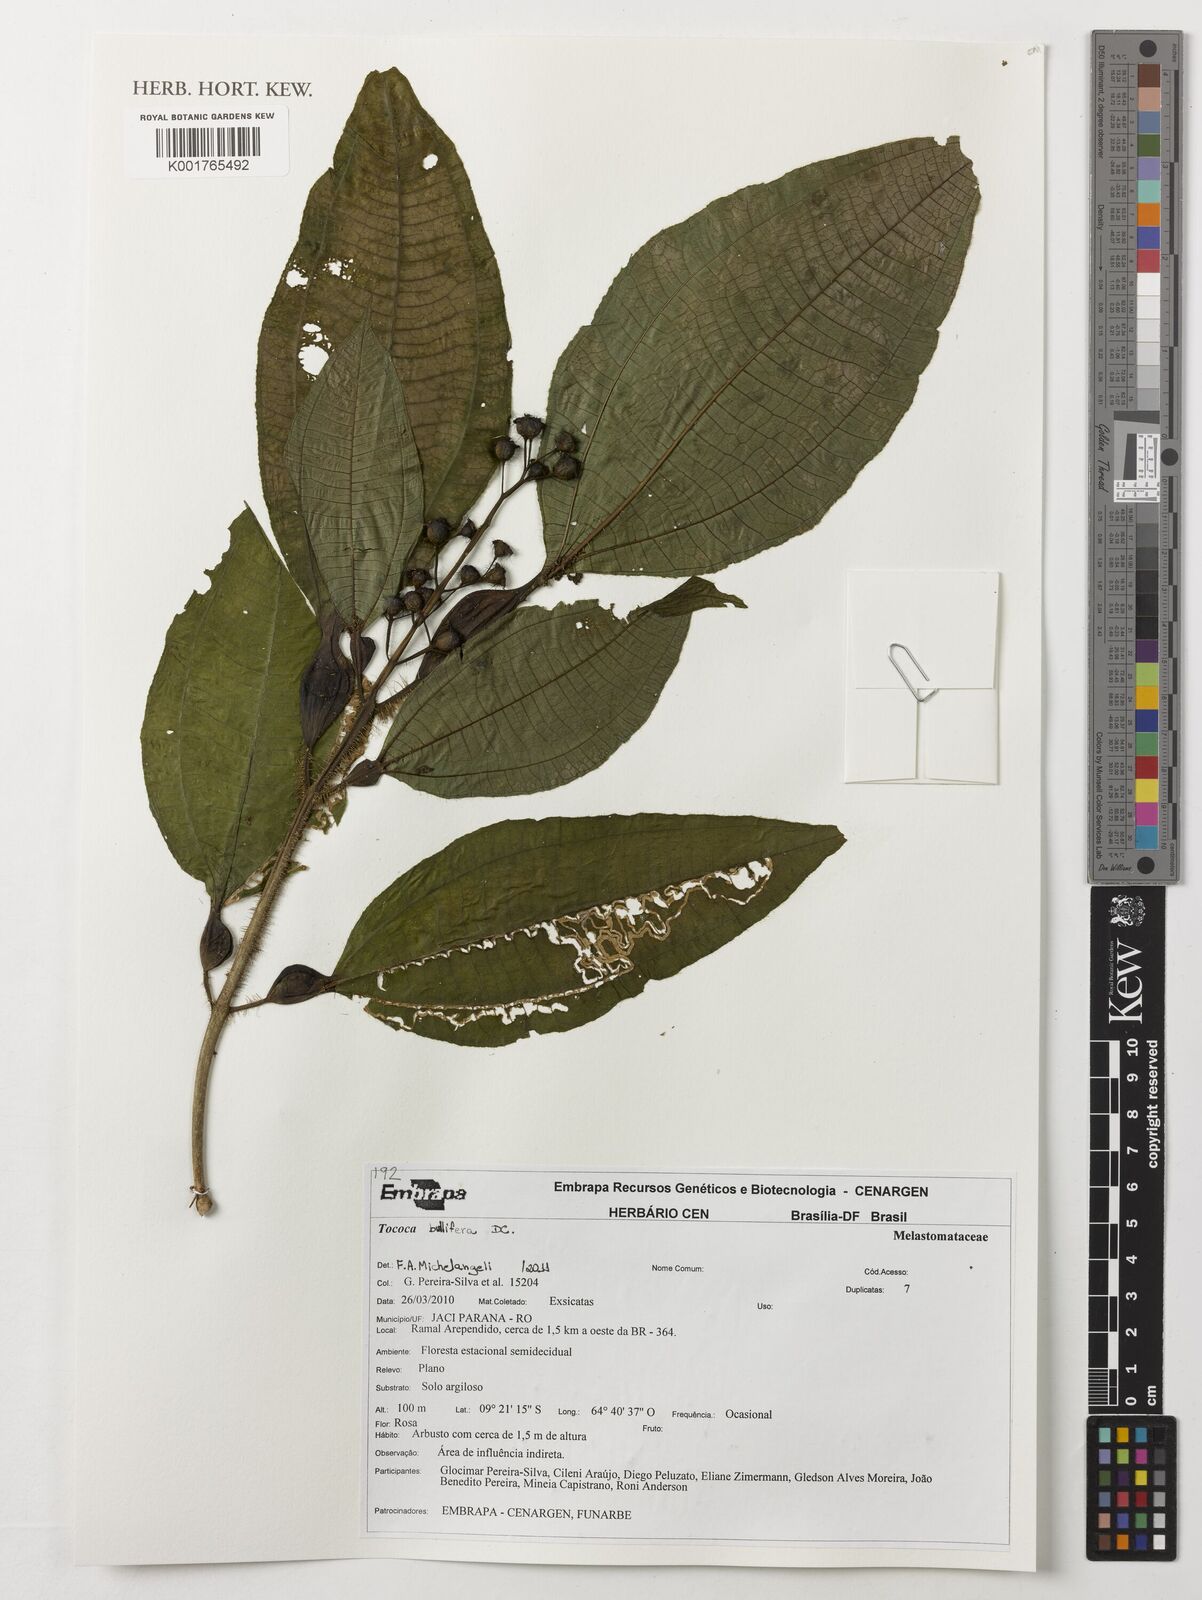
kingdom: Plantae
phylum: Tracheophyta
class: Magnoliopsida
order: Myrtales
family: Melastomataceae
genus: Miconia
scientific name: Miconia bullifera
